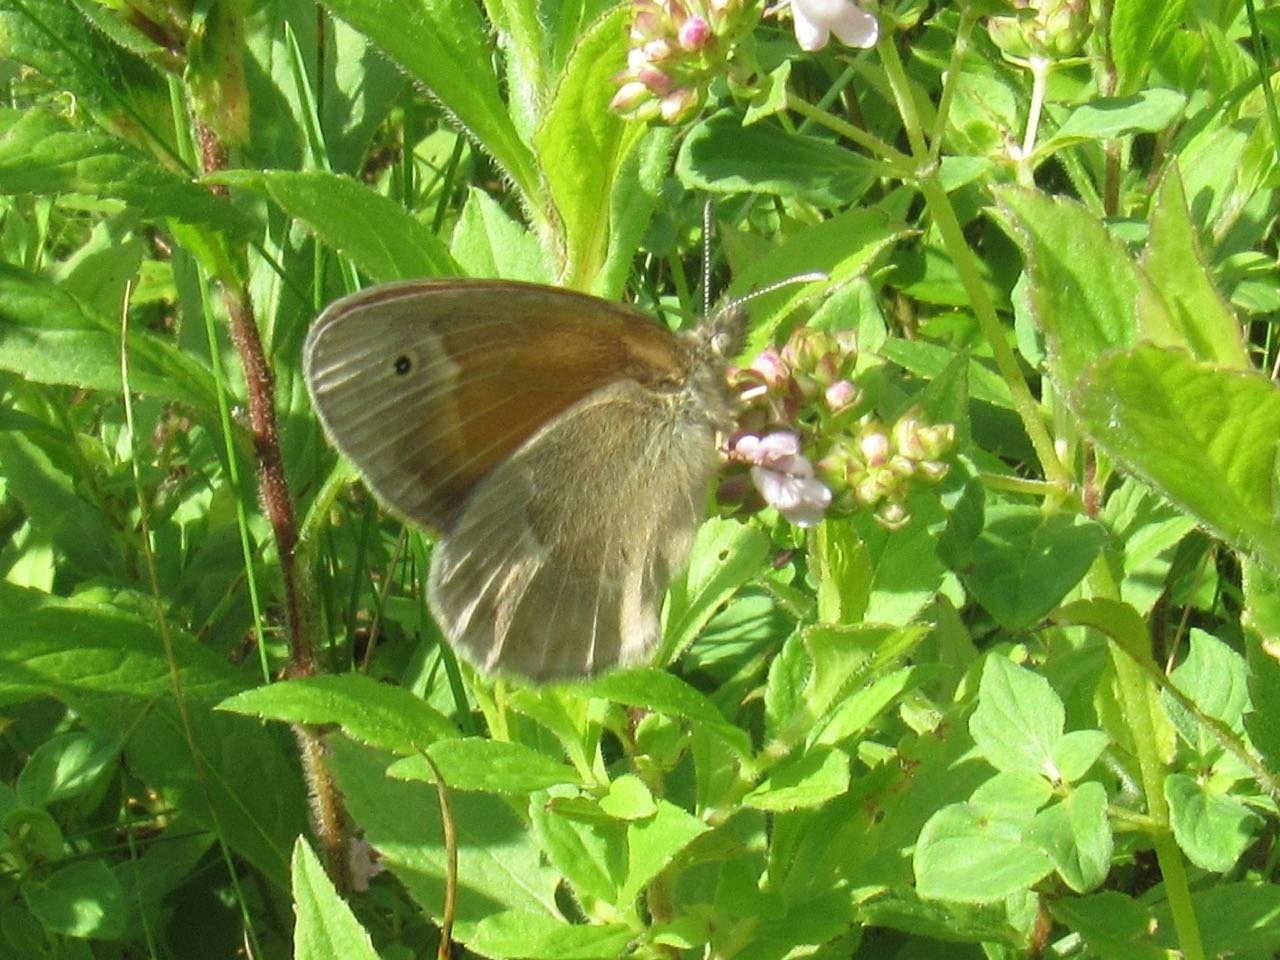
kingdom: Animalia
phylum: Arthropoda
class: Insecta
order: Lepidoptera
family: Nymphalidae
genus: Coenonympha
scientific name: Coenonympha tullia
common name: Large Heath
